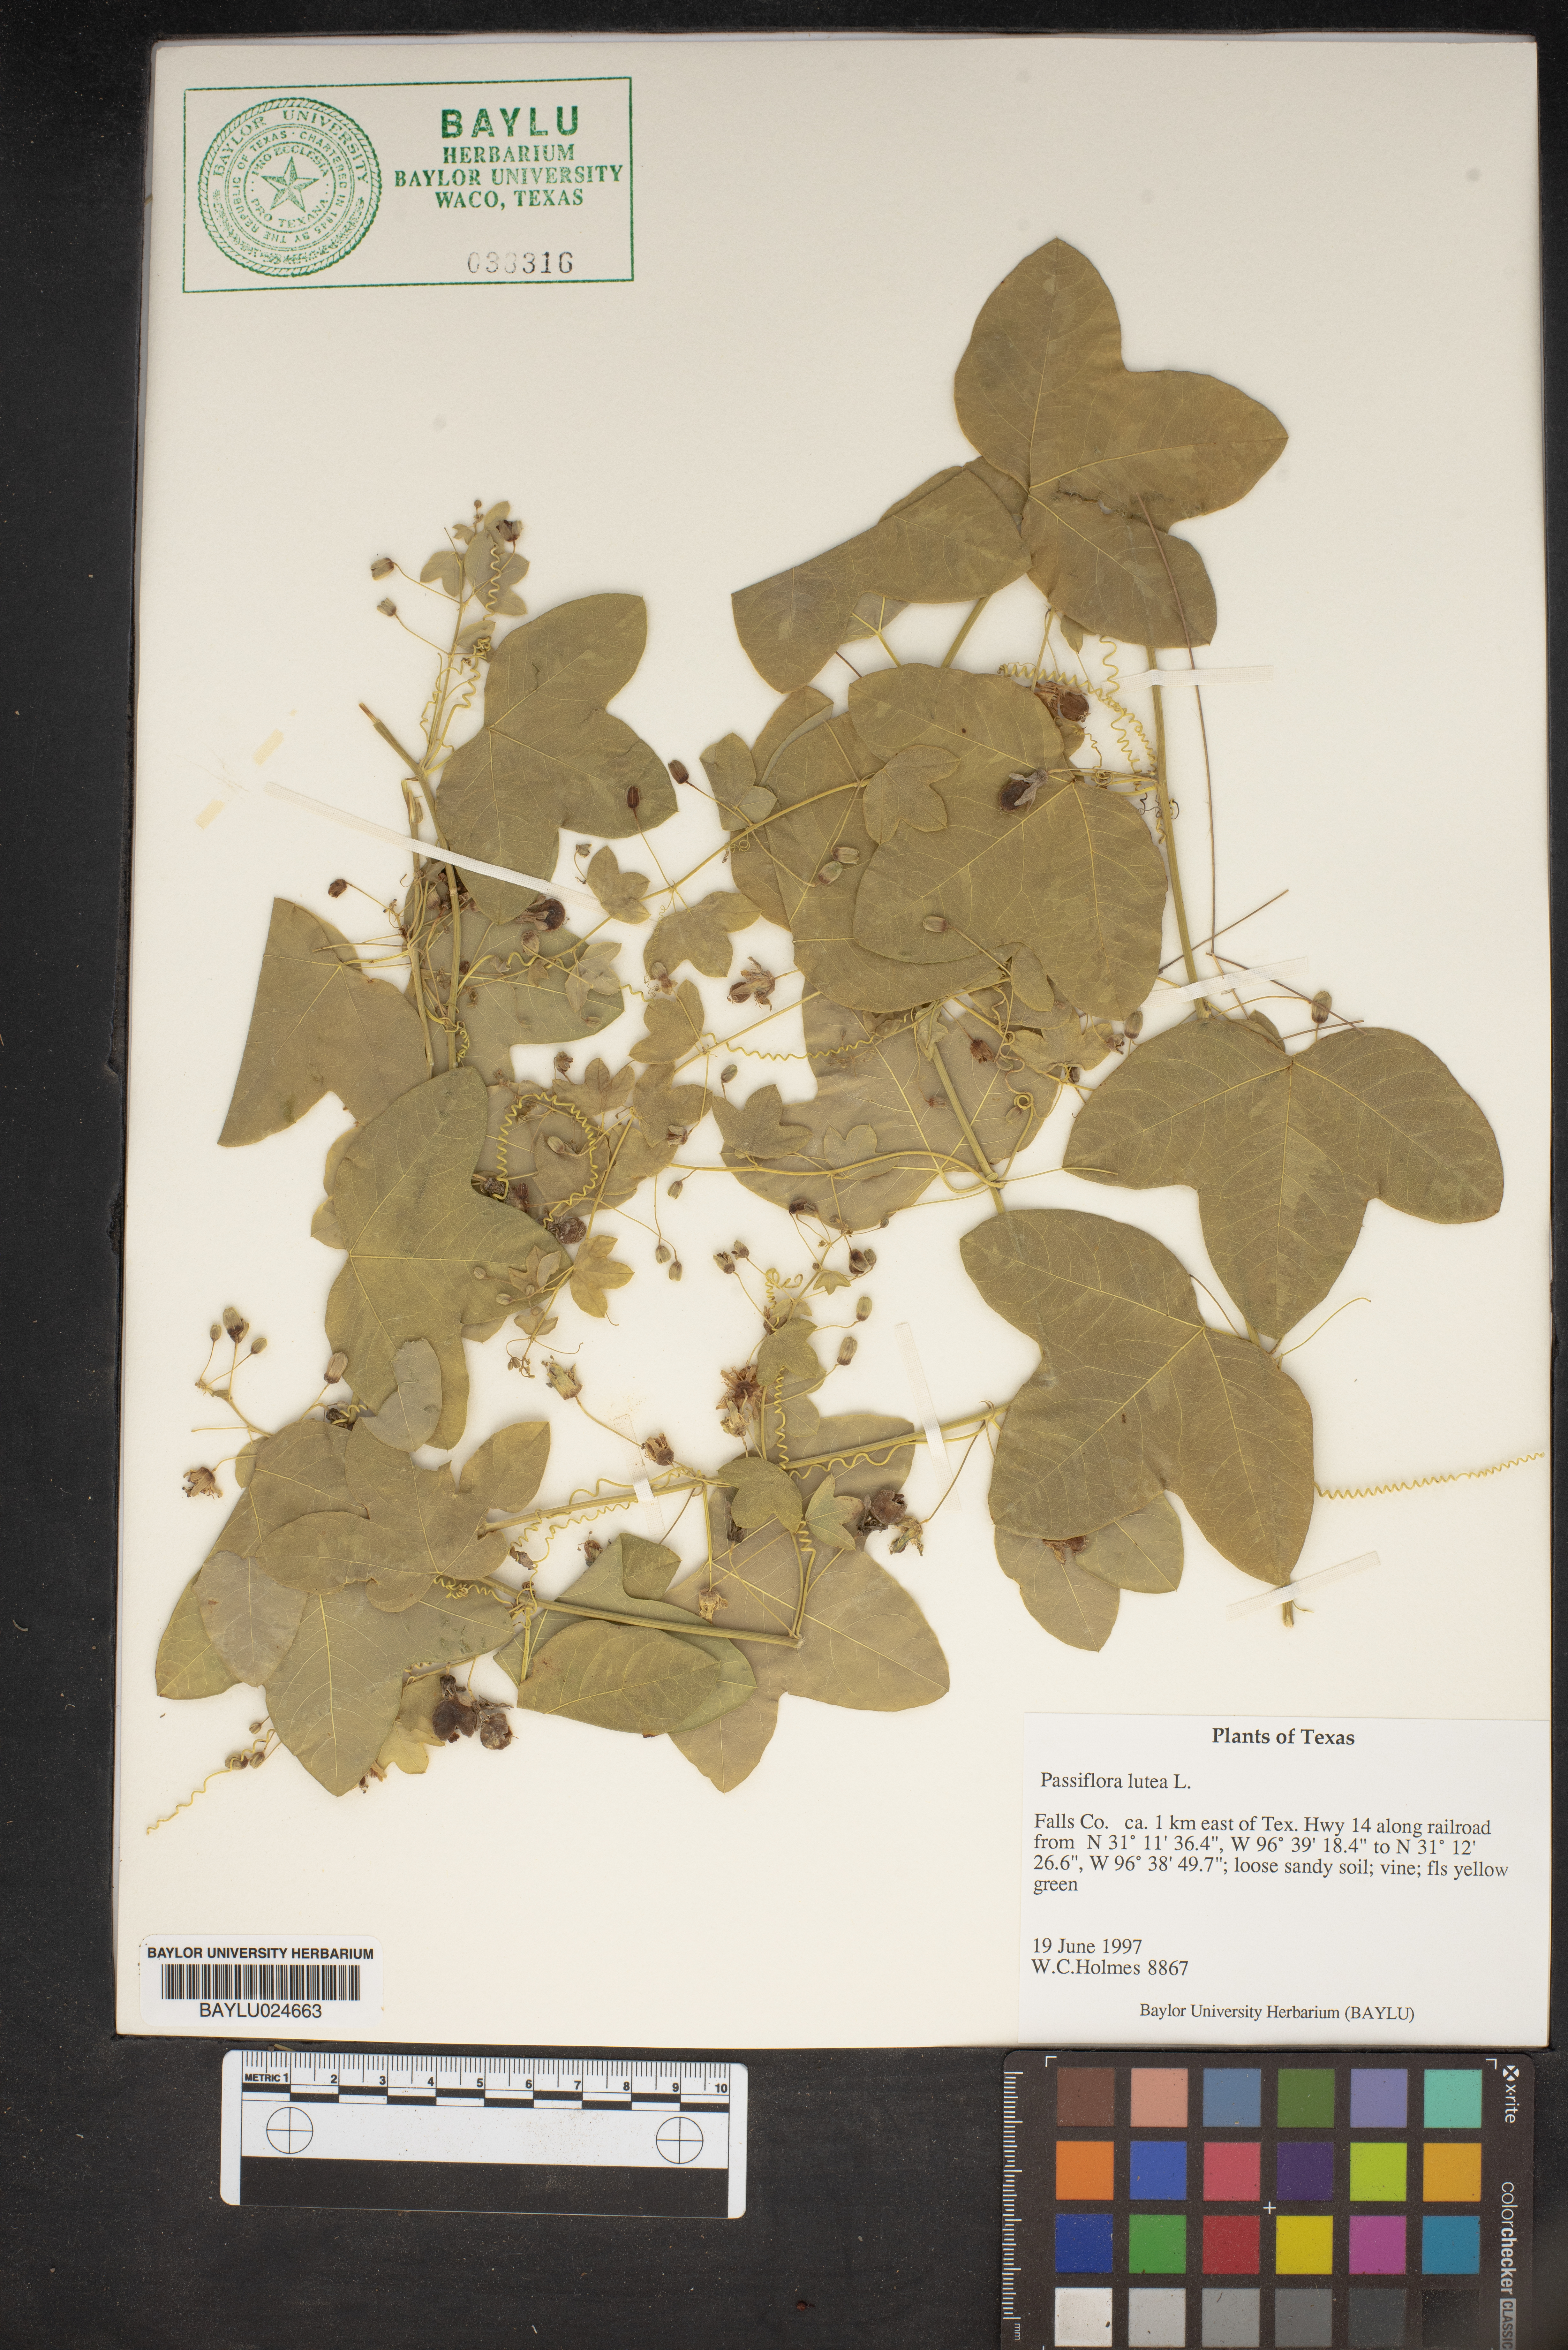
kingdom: Plantae
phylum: Tracheophyta
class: Magnoliopsida
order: Malpighiales
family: Passifloraceae
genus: Passiflora
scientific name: Passiflora lutea
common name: Yellow passionflower
